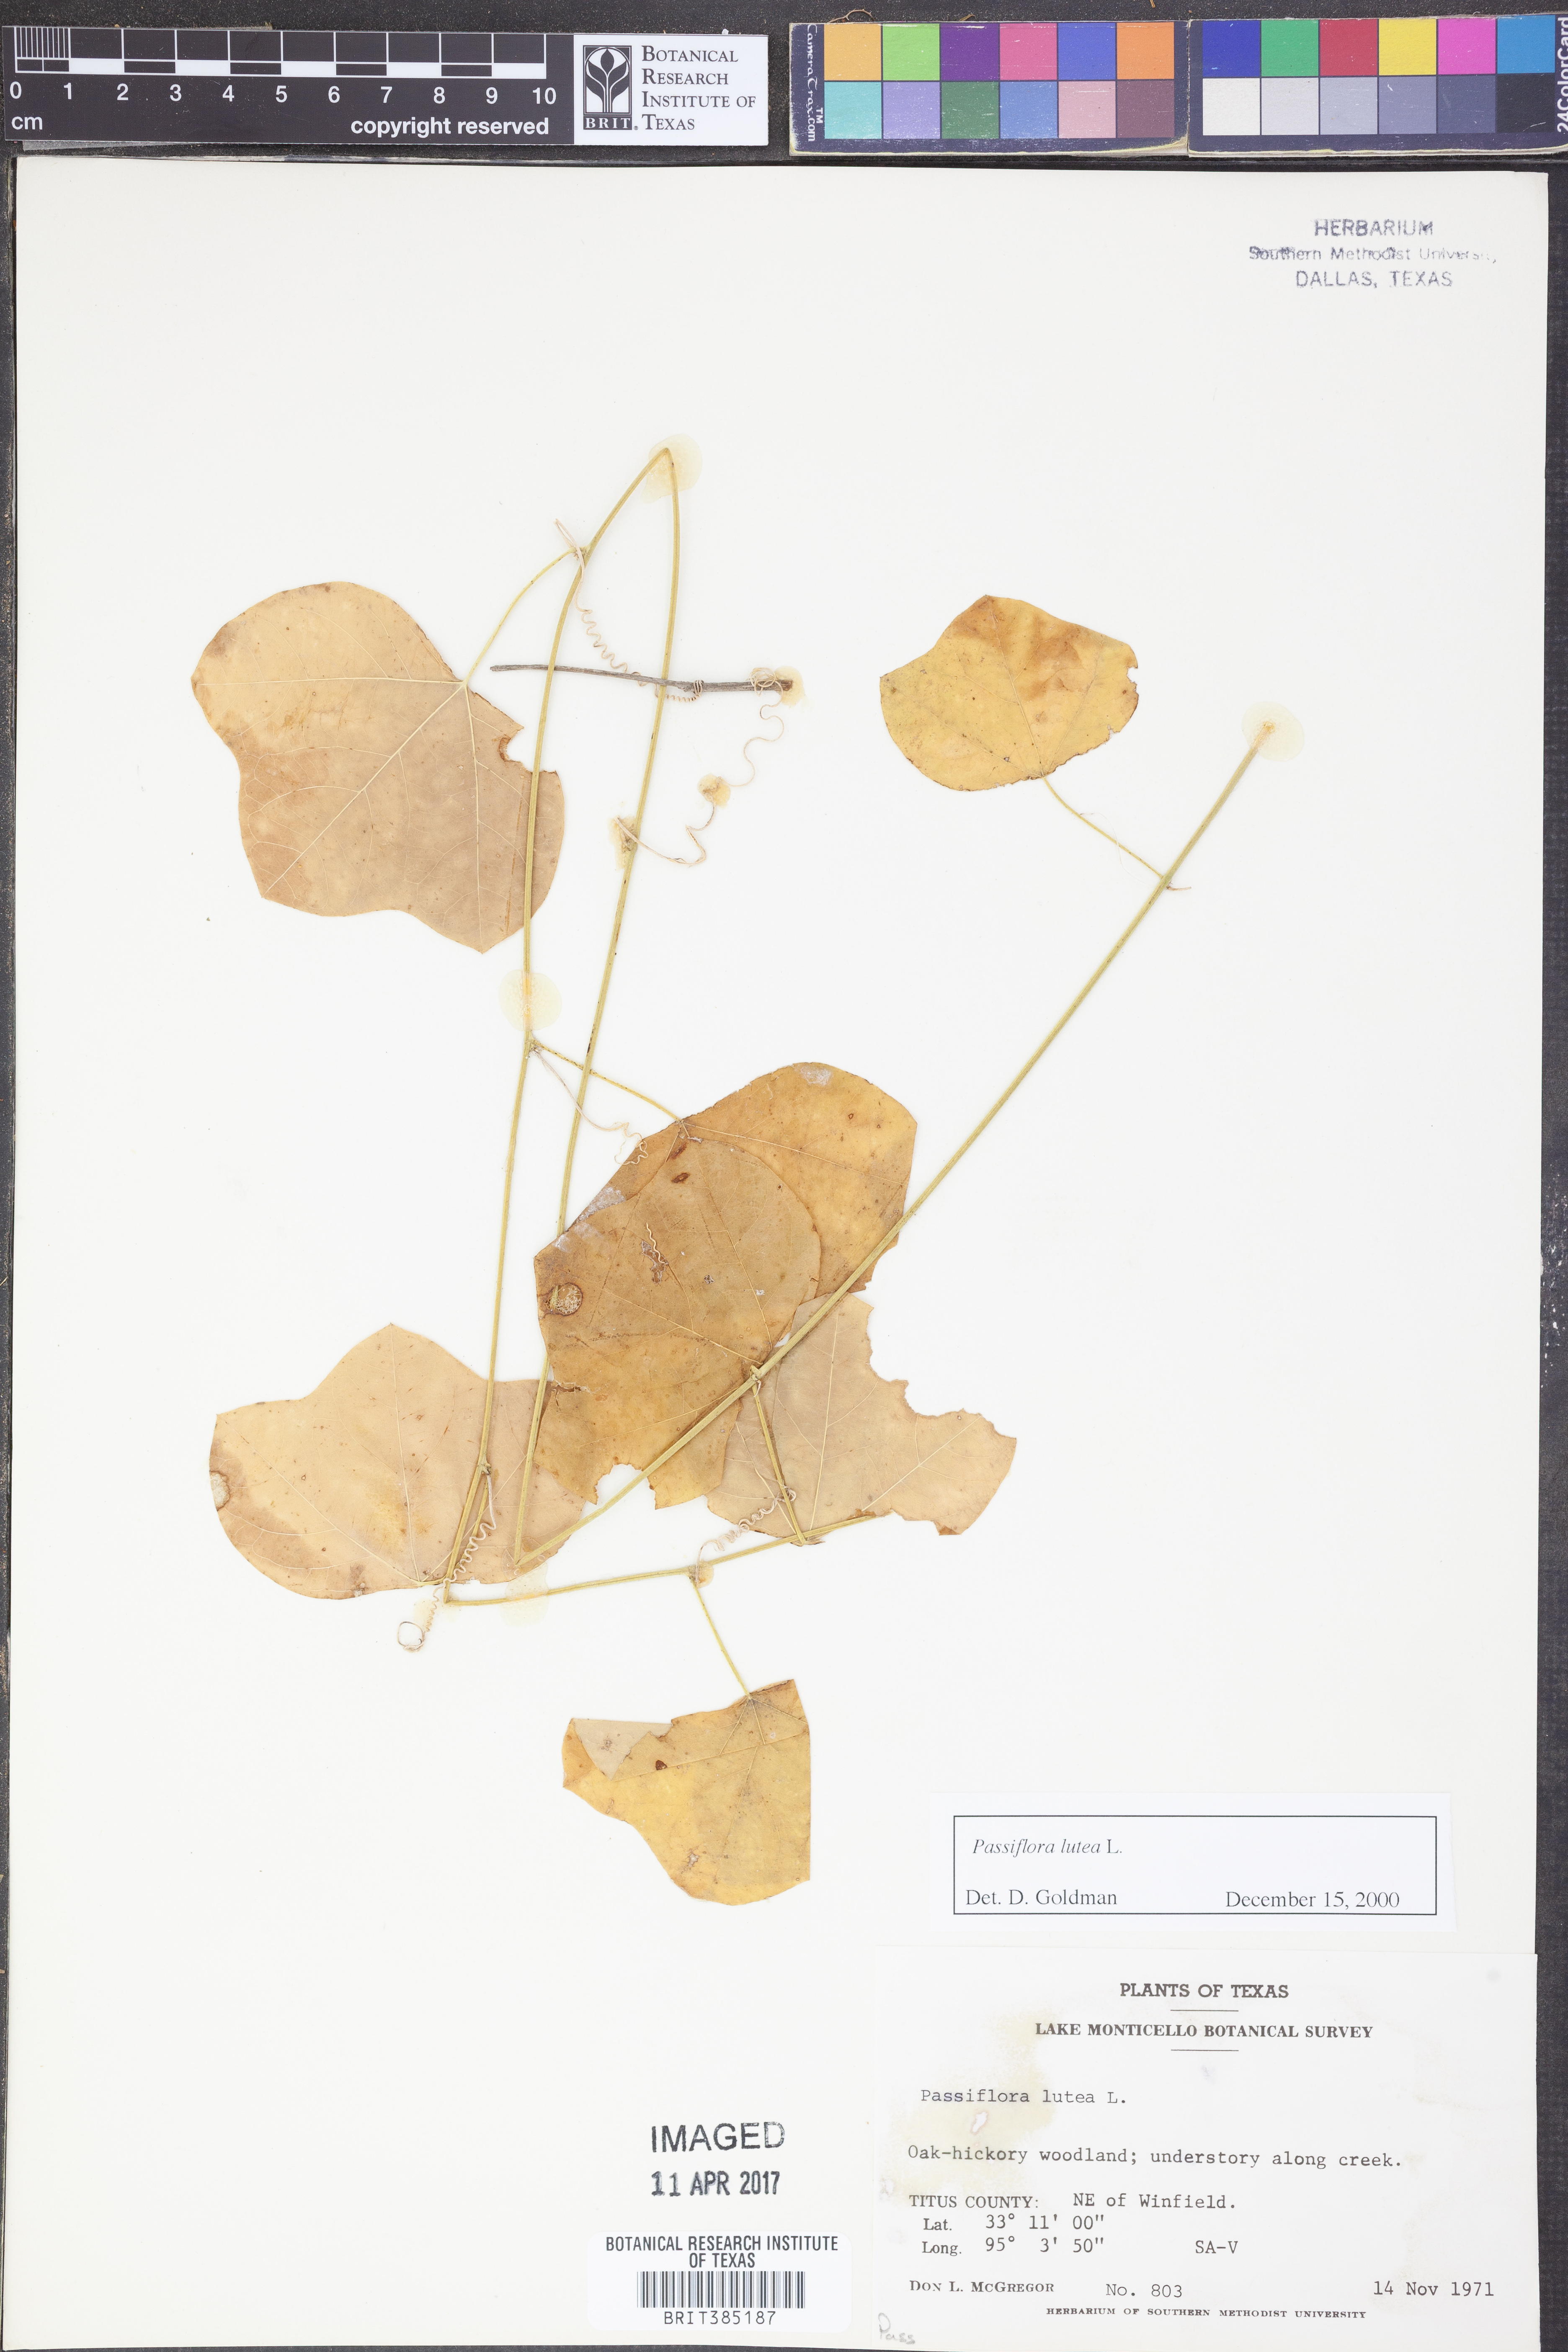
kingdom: Plantae
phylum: Tracheophyta
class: Magnoliopsida
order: Malpighiales
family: Passifloraceae
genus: Passiflora
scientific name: Passiflora lutea
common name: Yellow passionflower
